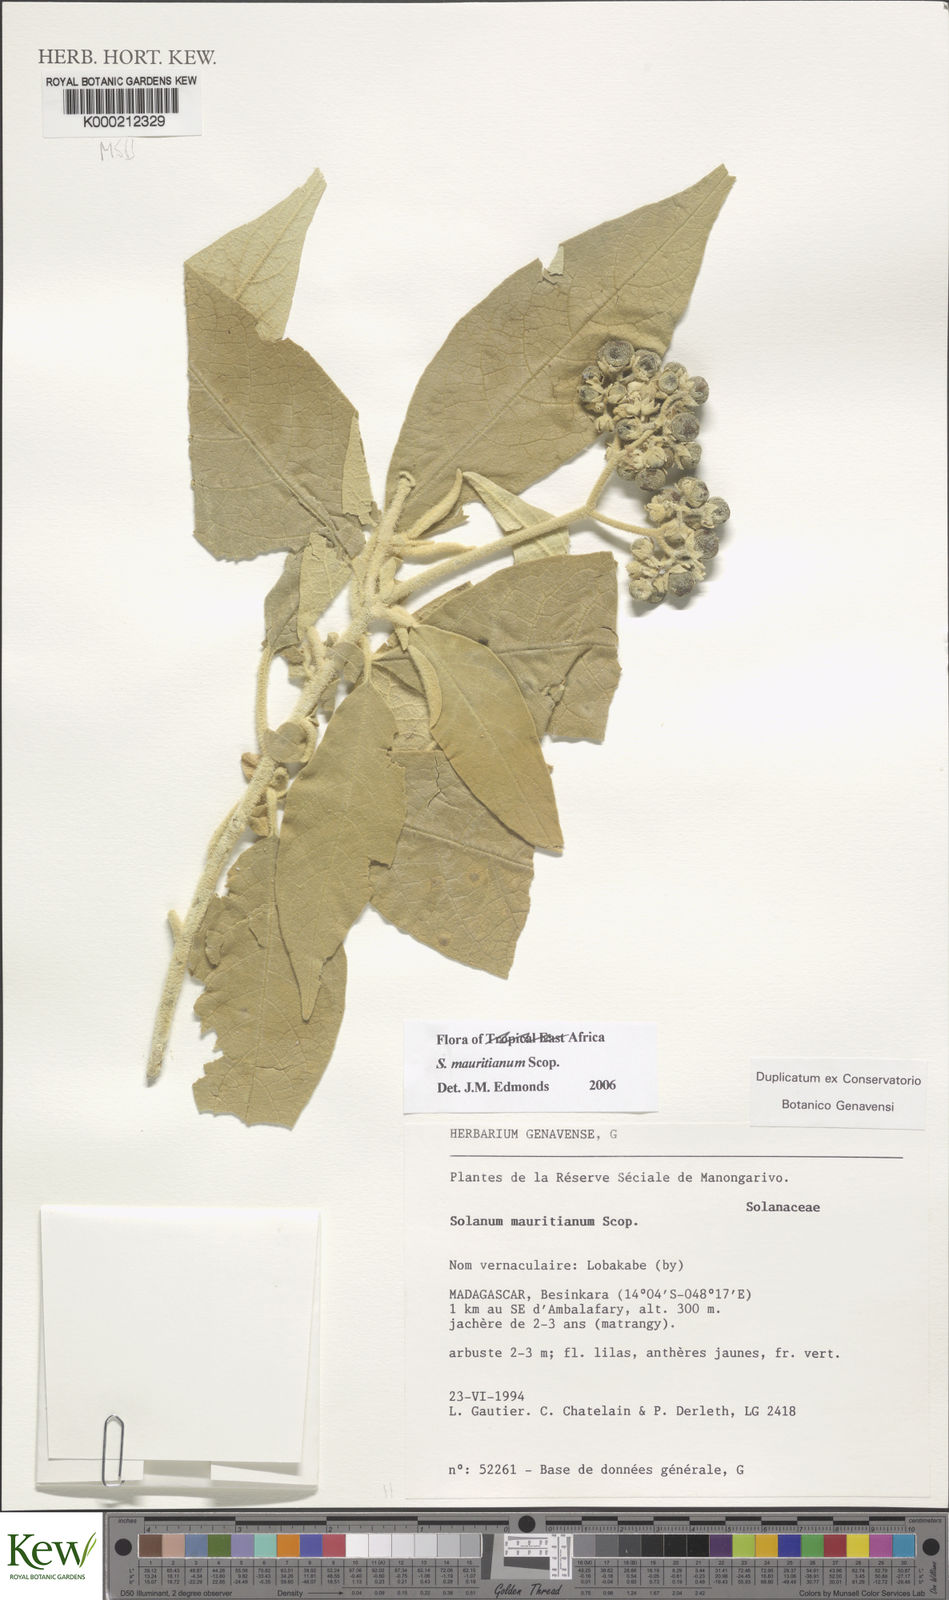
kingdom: Plantae
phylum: Tracheophyta
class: Magnoliopsida
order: Solanales
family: Solanaceae
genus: Solanum
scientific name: Solanum mauritianum
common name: Earleaf nightshade
